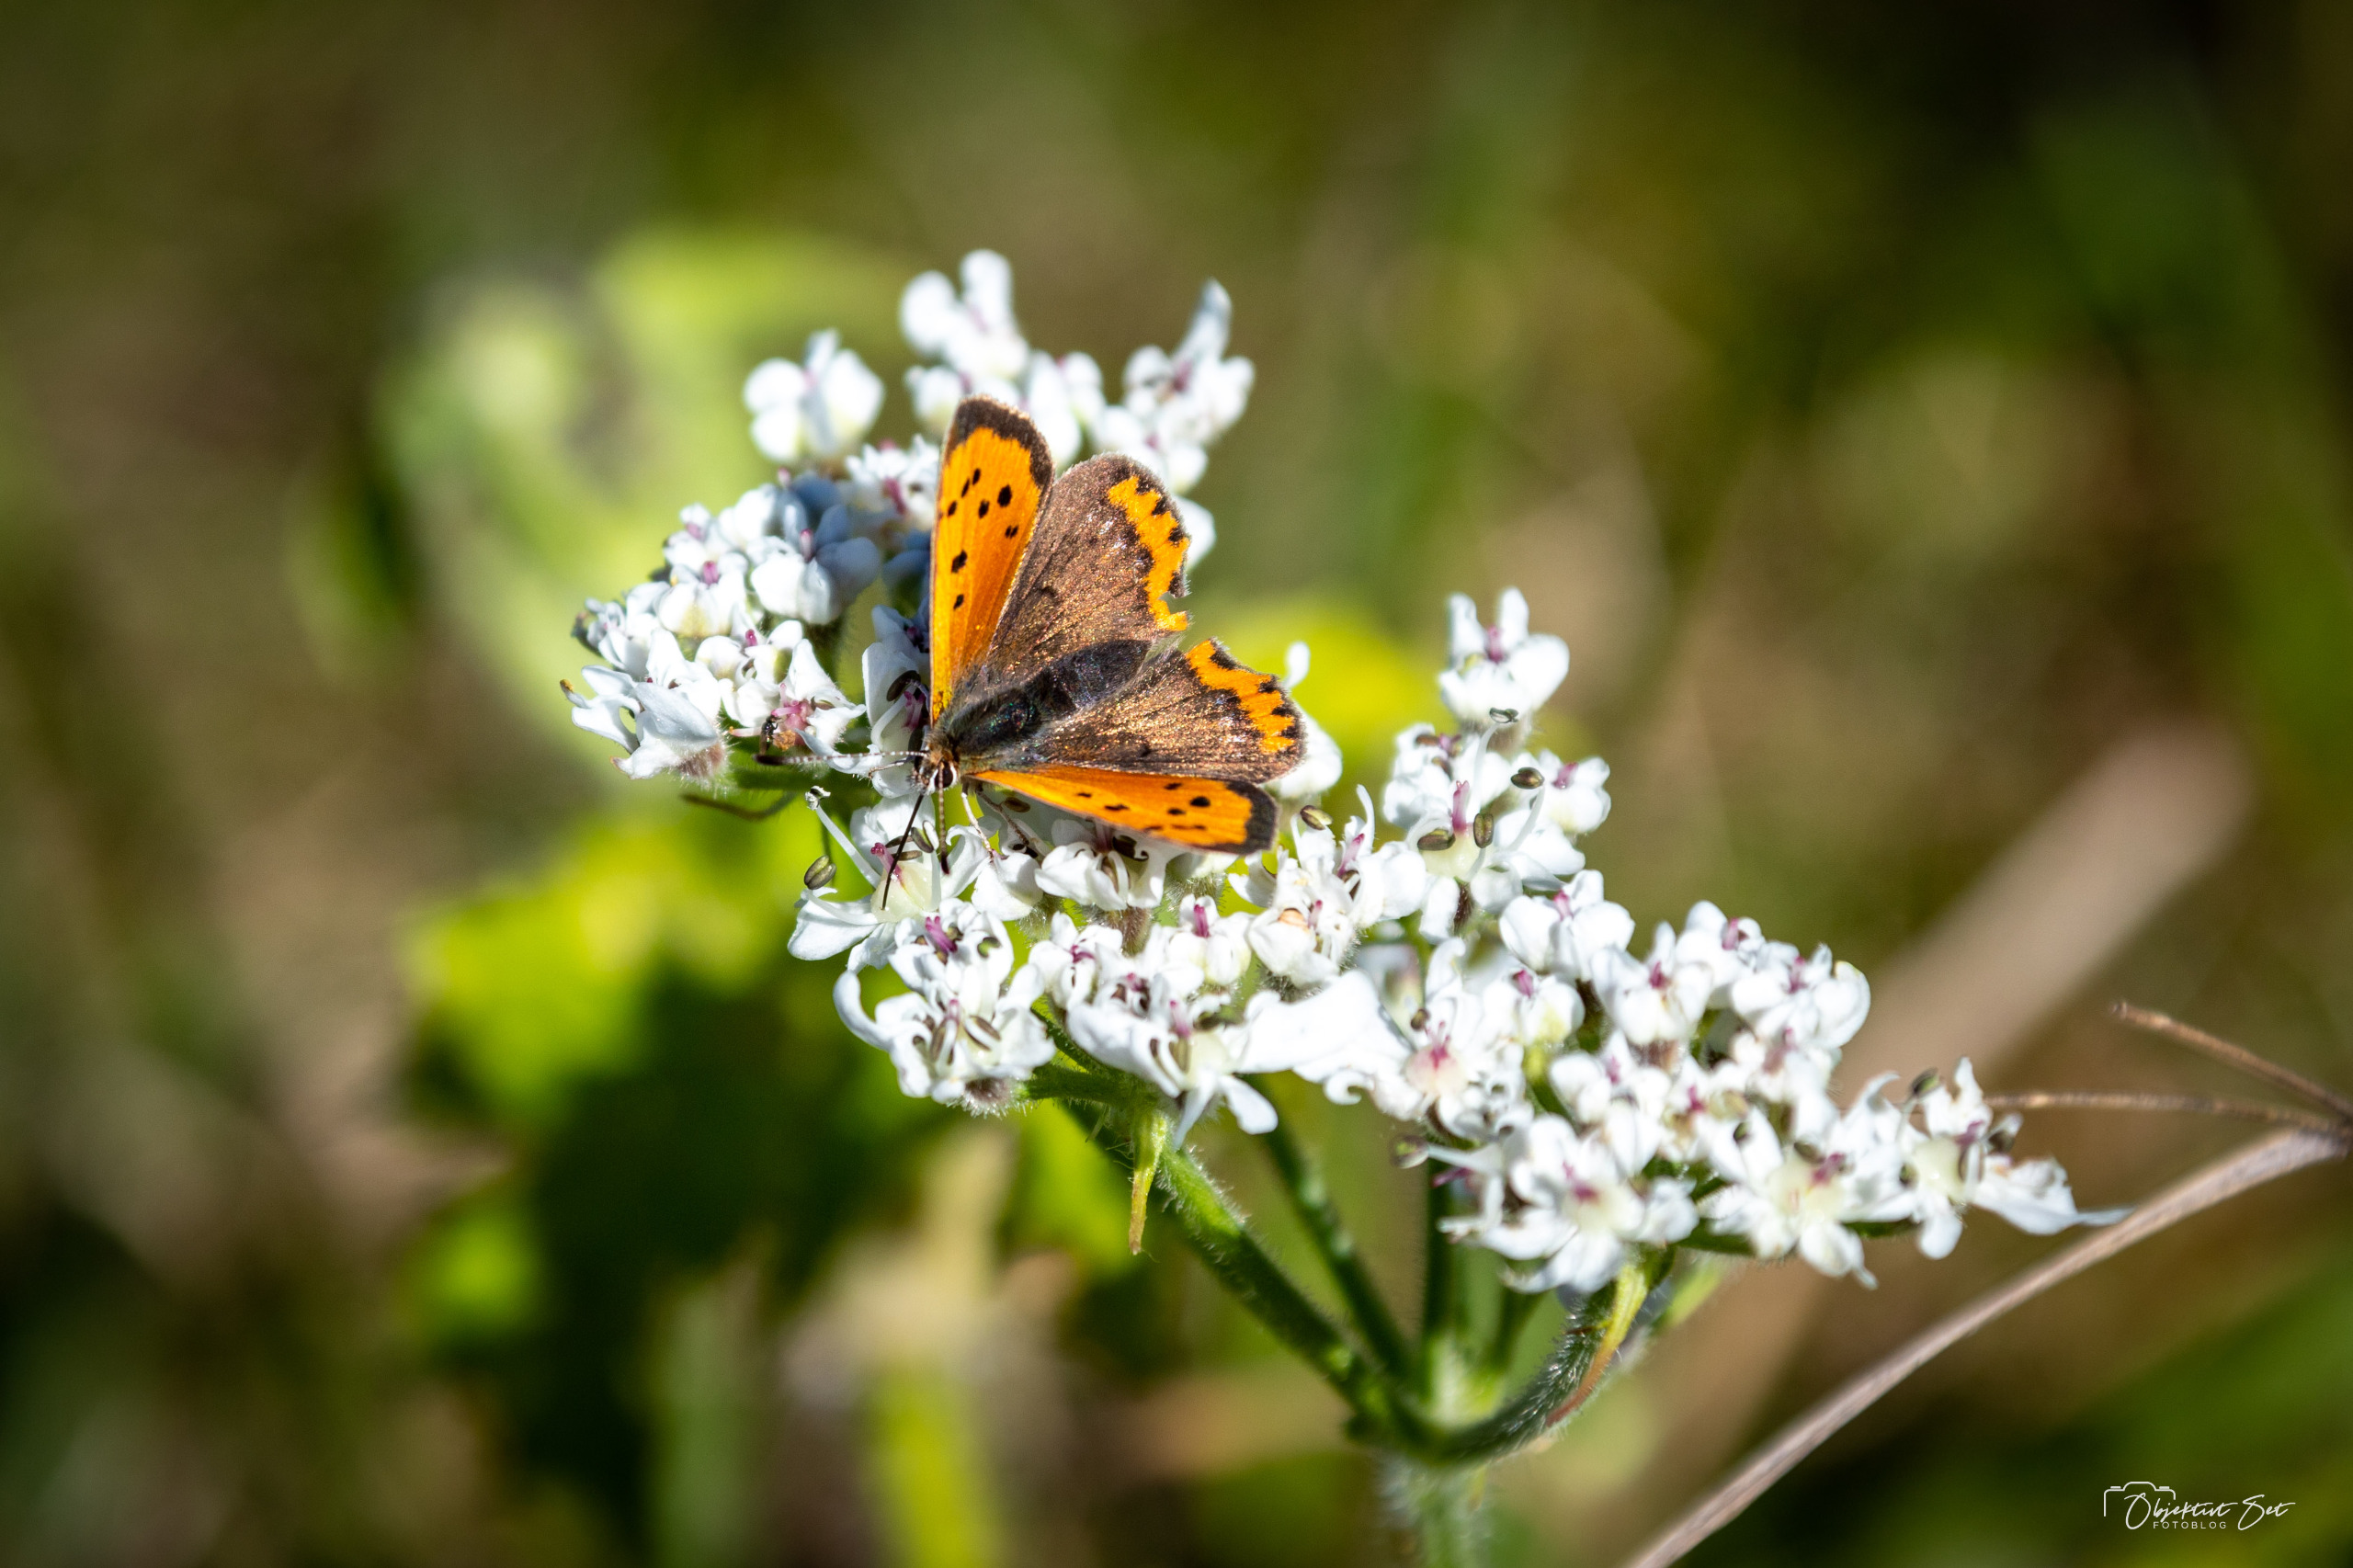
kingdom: Animalia
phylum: Arthropoda
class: Insecta
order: Lepidoptera
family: Lycaenidae
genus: Lycaena
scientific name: Lycaena phlaeas
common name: Lille ildfugl
